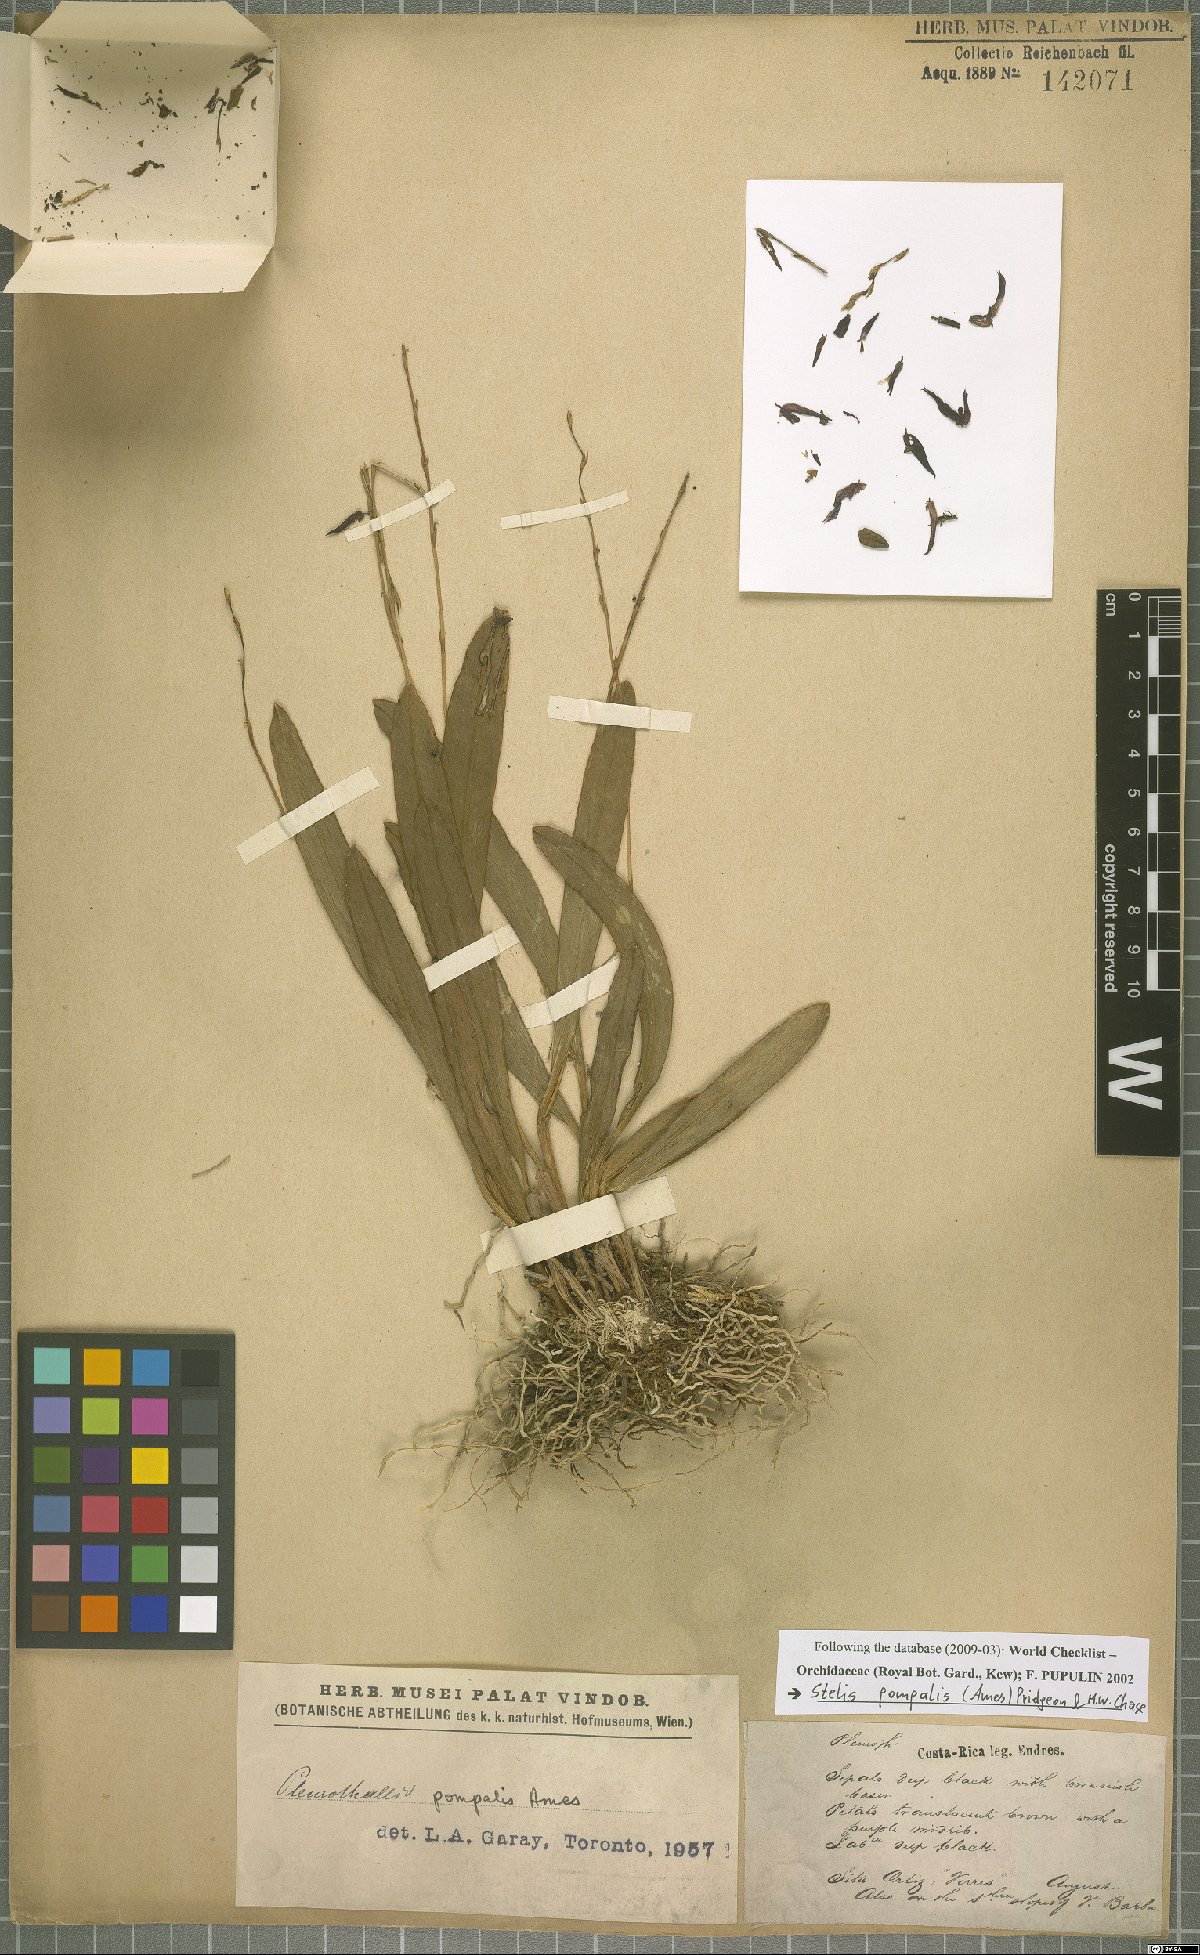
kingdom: Plantae
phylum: Tracheophyta
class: Liliopsida
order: Asparagales
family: Orchidaceae
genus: Stelis
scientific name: Stelis pompalis
